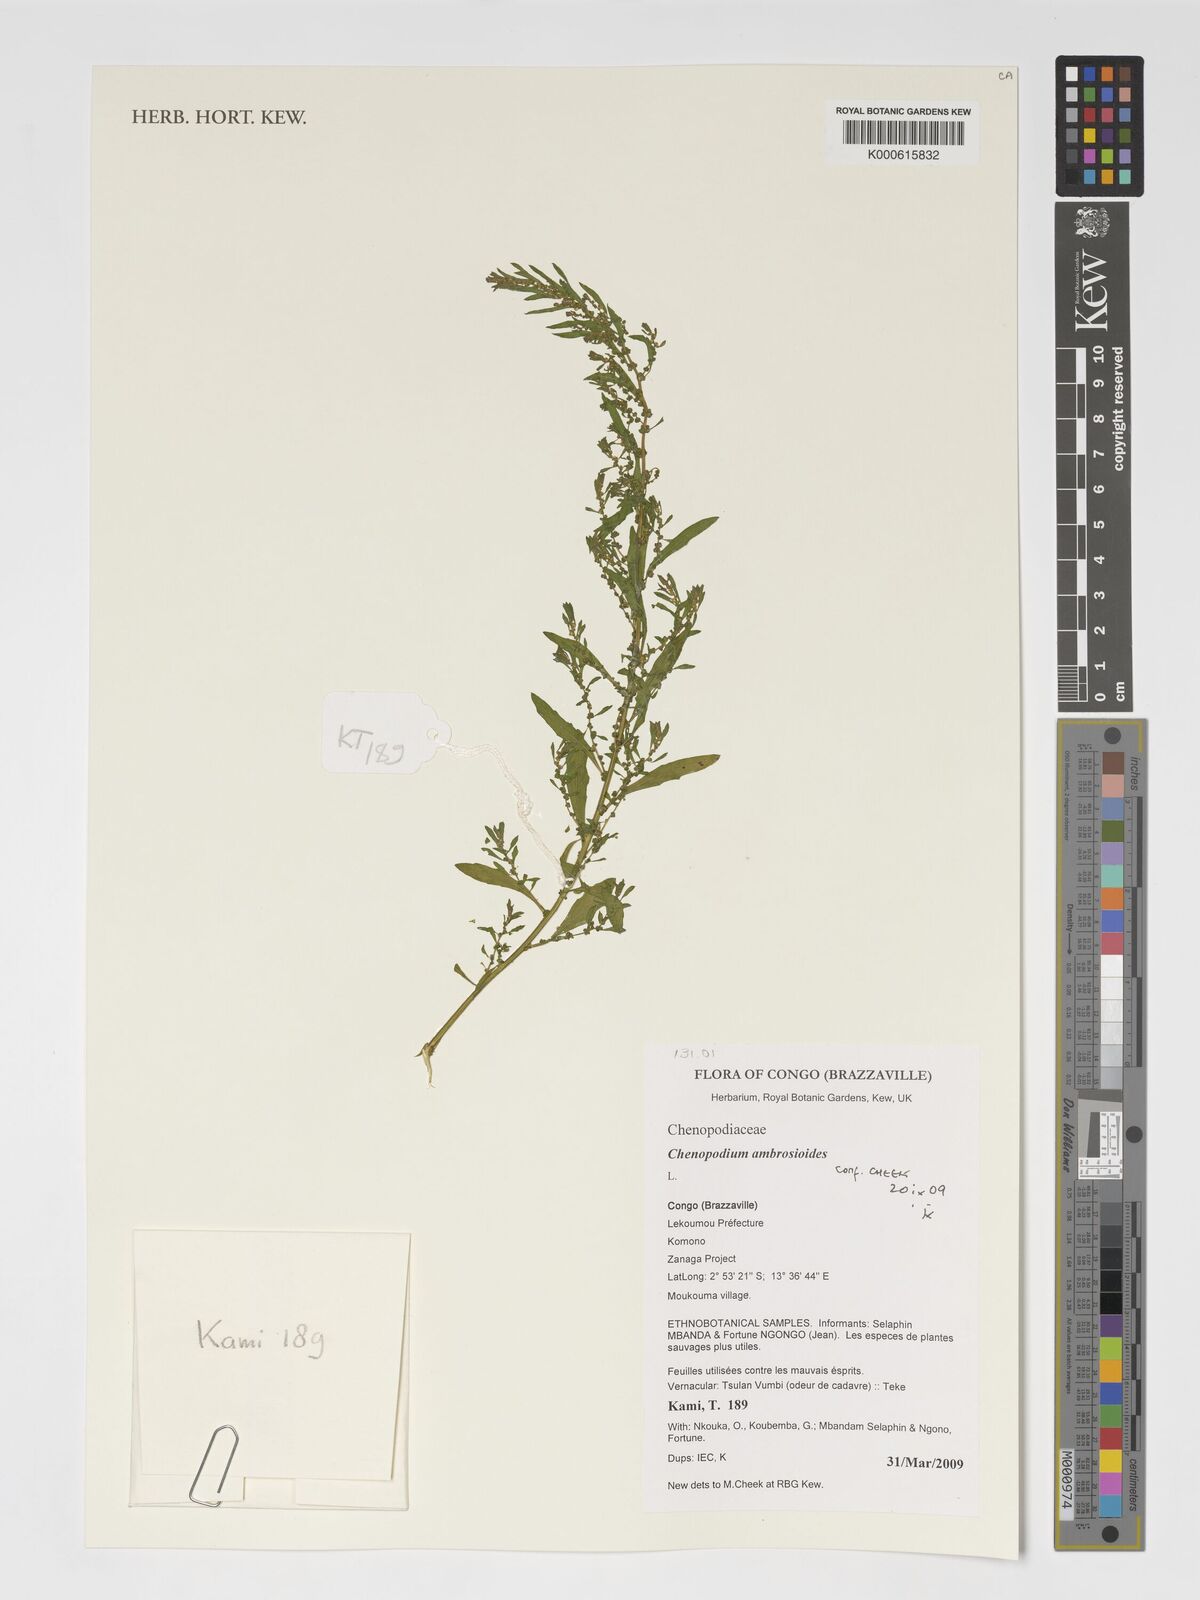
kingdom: Plantae
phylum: Tracheophyta
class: Magnoliopsida
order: Caryophyllales
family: Amaranthaceae
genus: Dysphania
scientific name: Dysphania ambrosioides
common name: Wormseed
